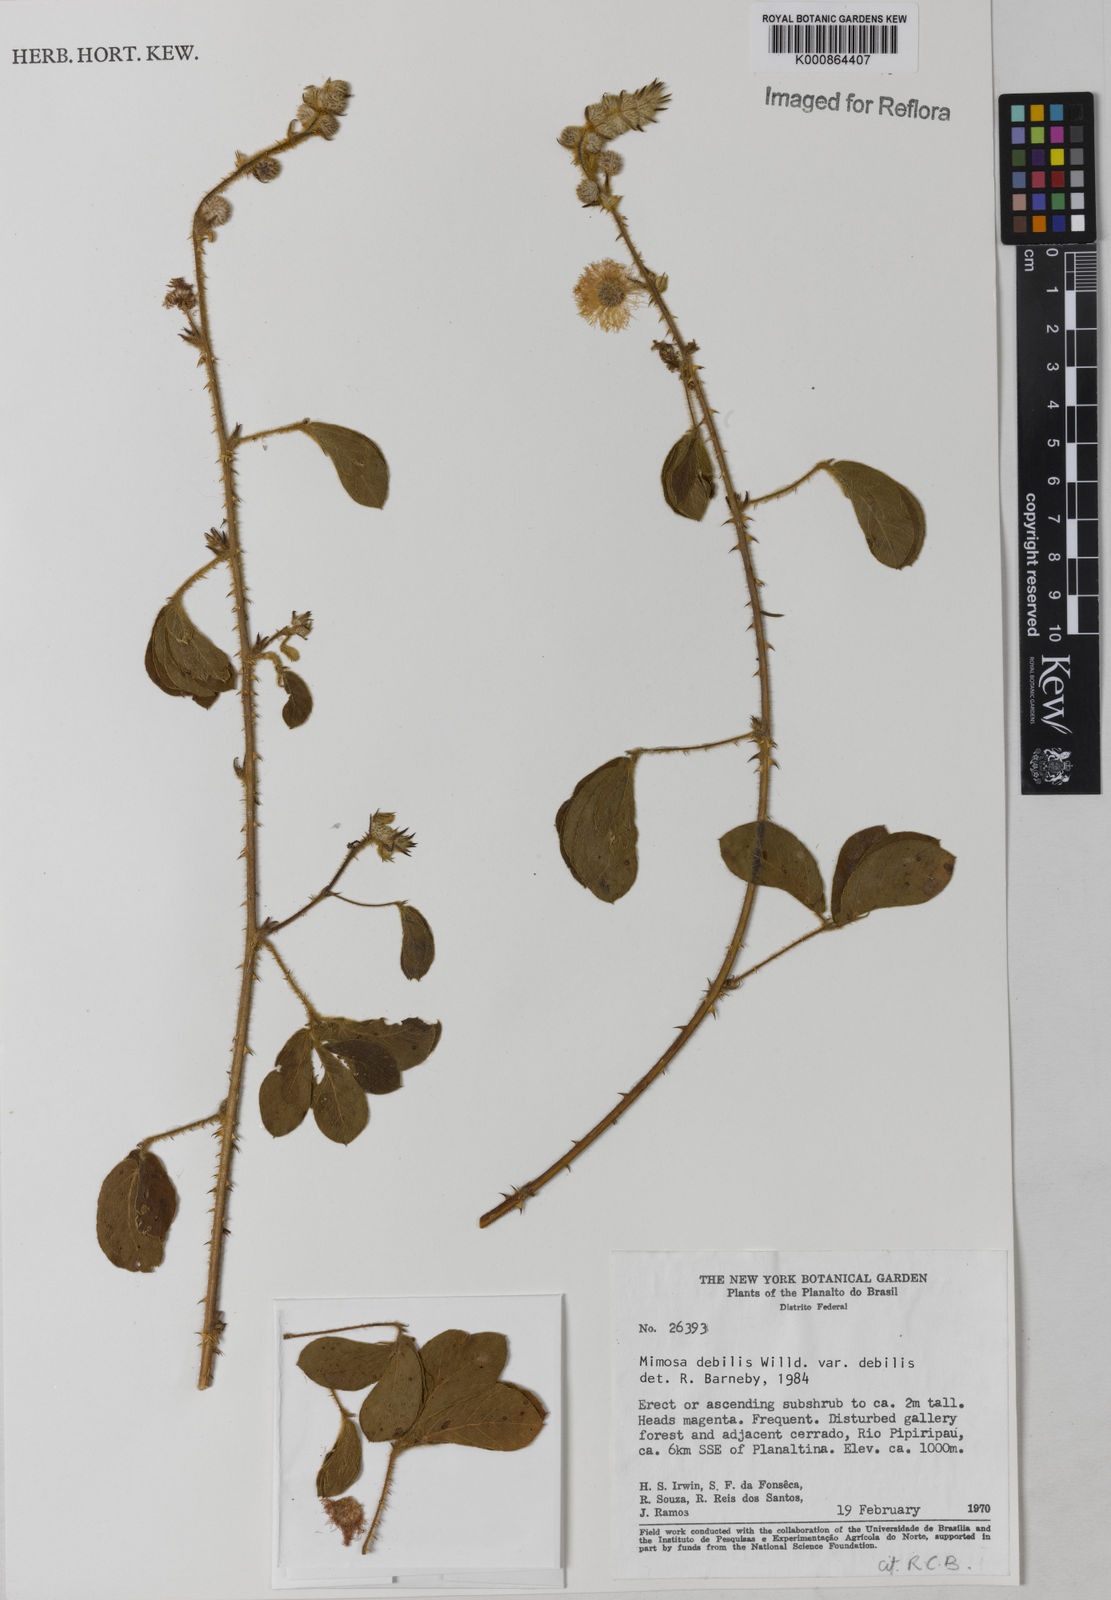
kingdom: Plantae
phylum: Tracheophyta
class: Magnoliopsida
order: Fabales
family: Fabaceae
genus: Mimosa
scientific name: Mimosa debilis
